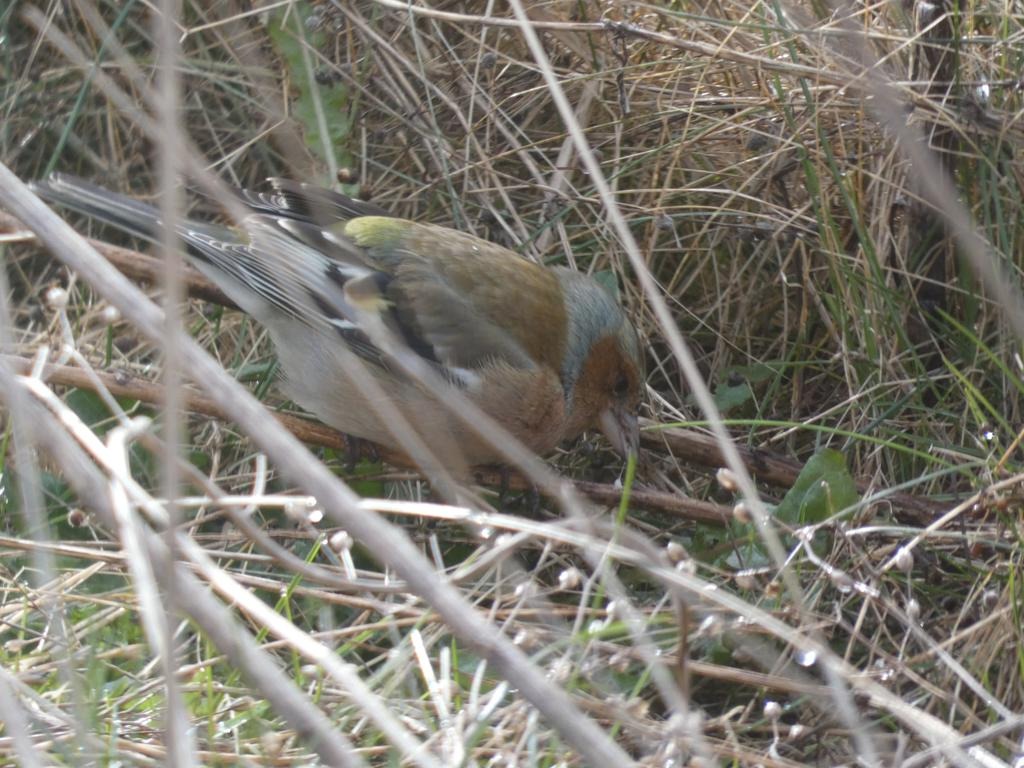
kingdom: Animalia
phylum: Chordata
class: Aves
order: Passeriformes
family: Fringillidae
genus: Fringilla
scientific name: Fringilla coelebs
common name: Bogfinke
